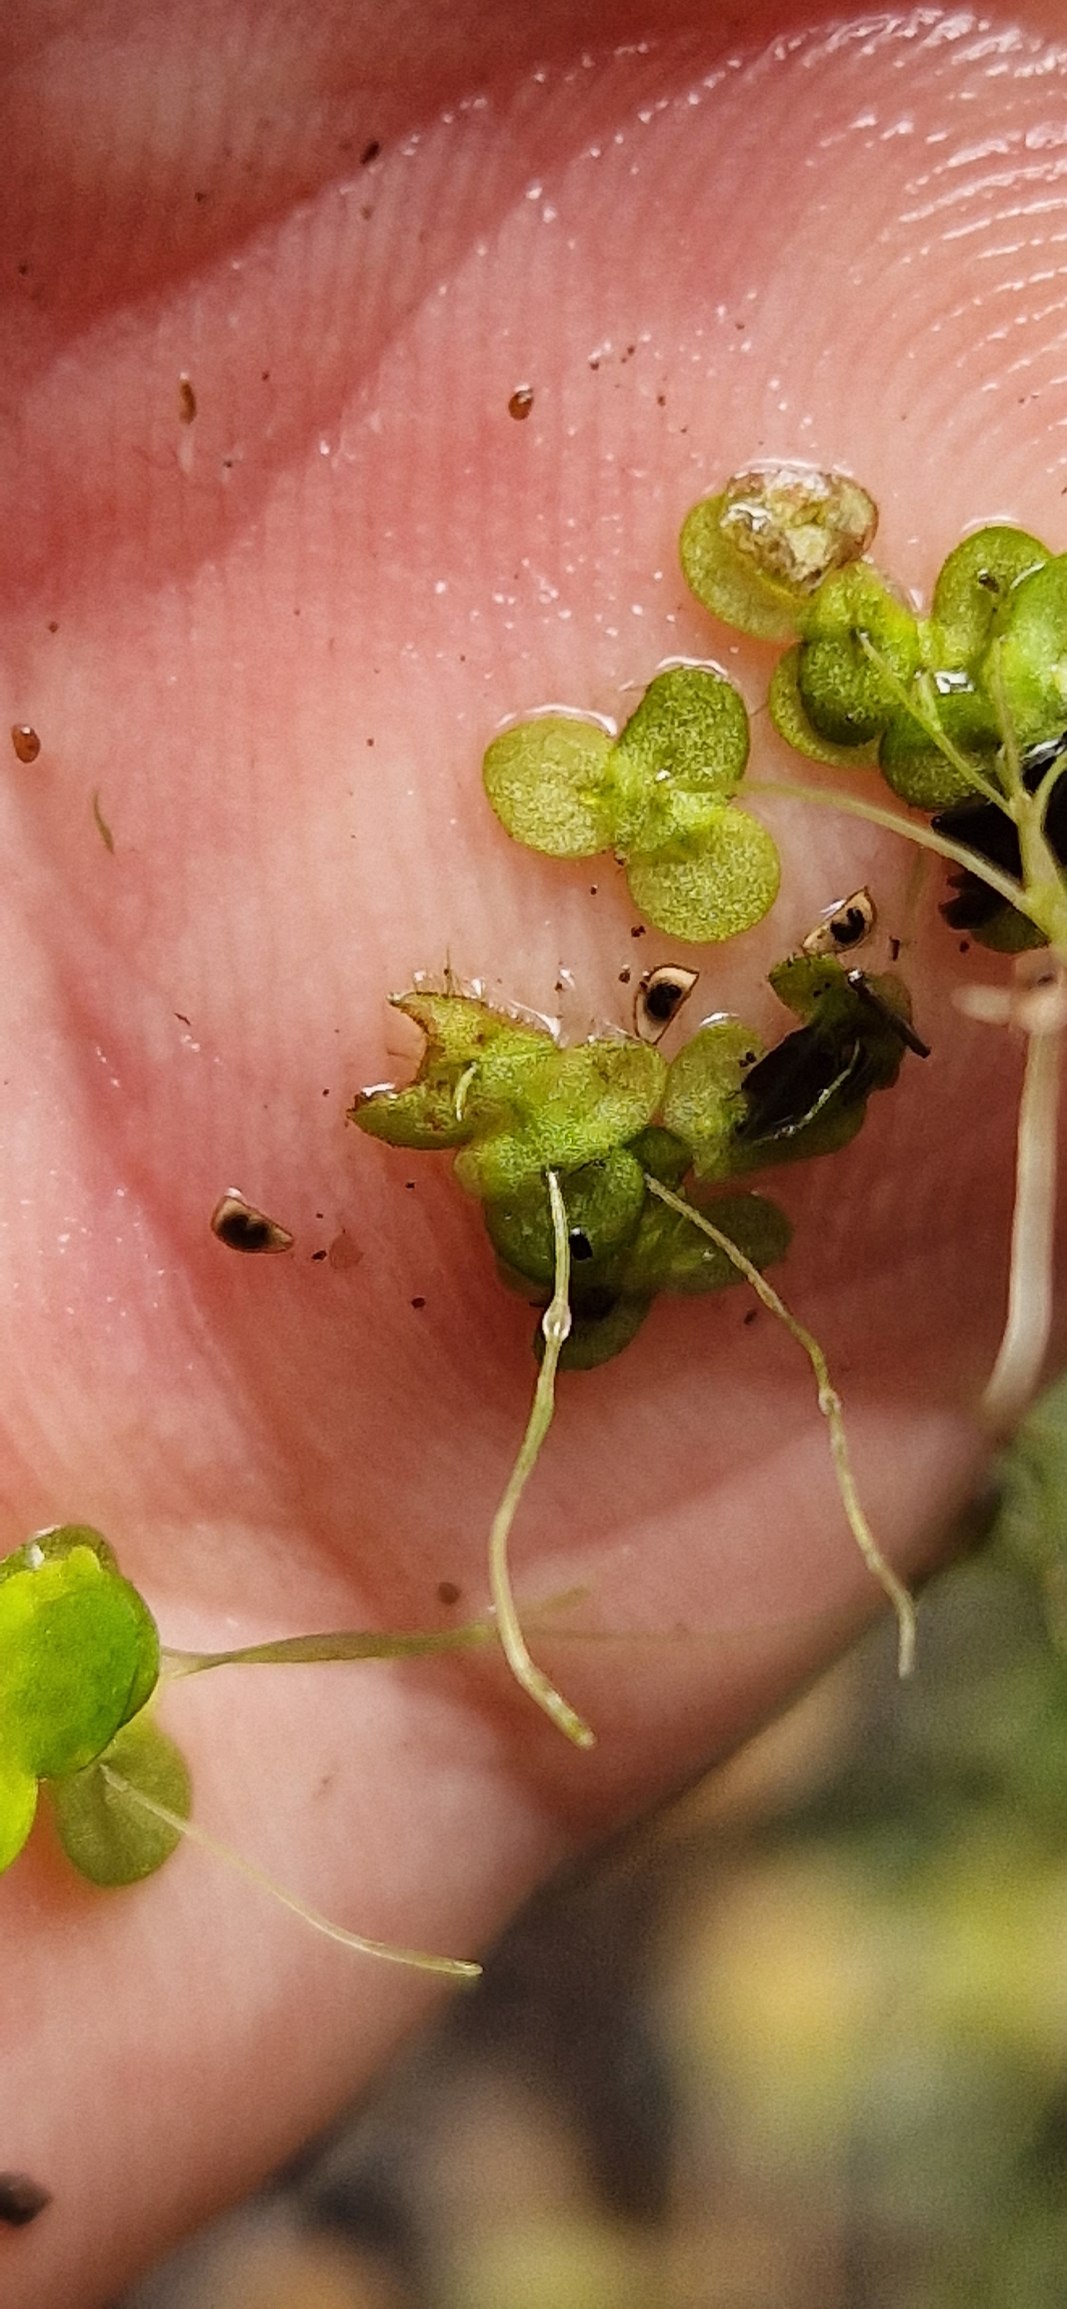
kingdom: Plantae
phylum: Tracheophyta
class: Liliopsida
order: Alismatales
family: Araceae
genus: Lemna
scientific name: Lemna minor
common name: Liden andemad
